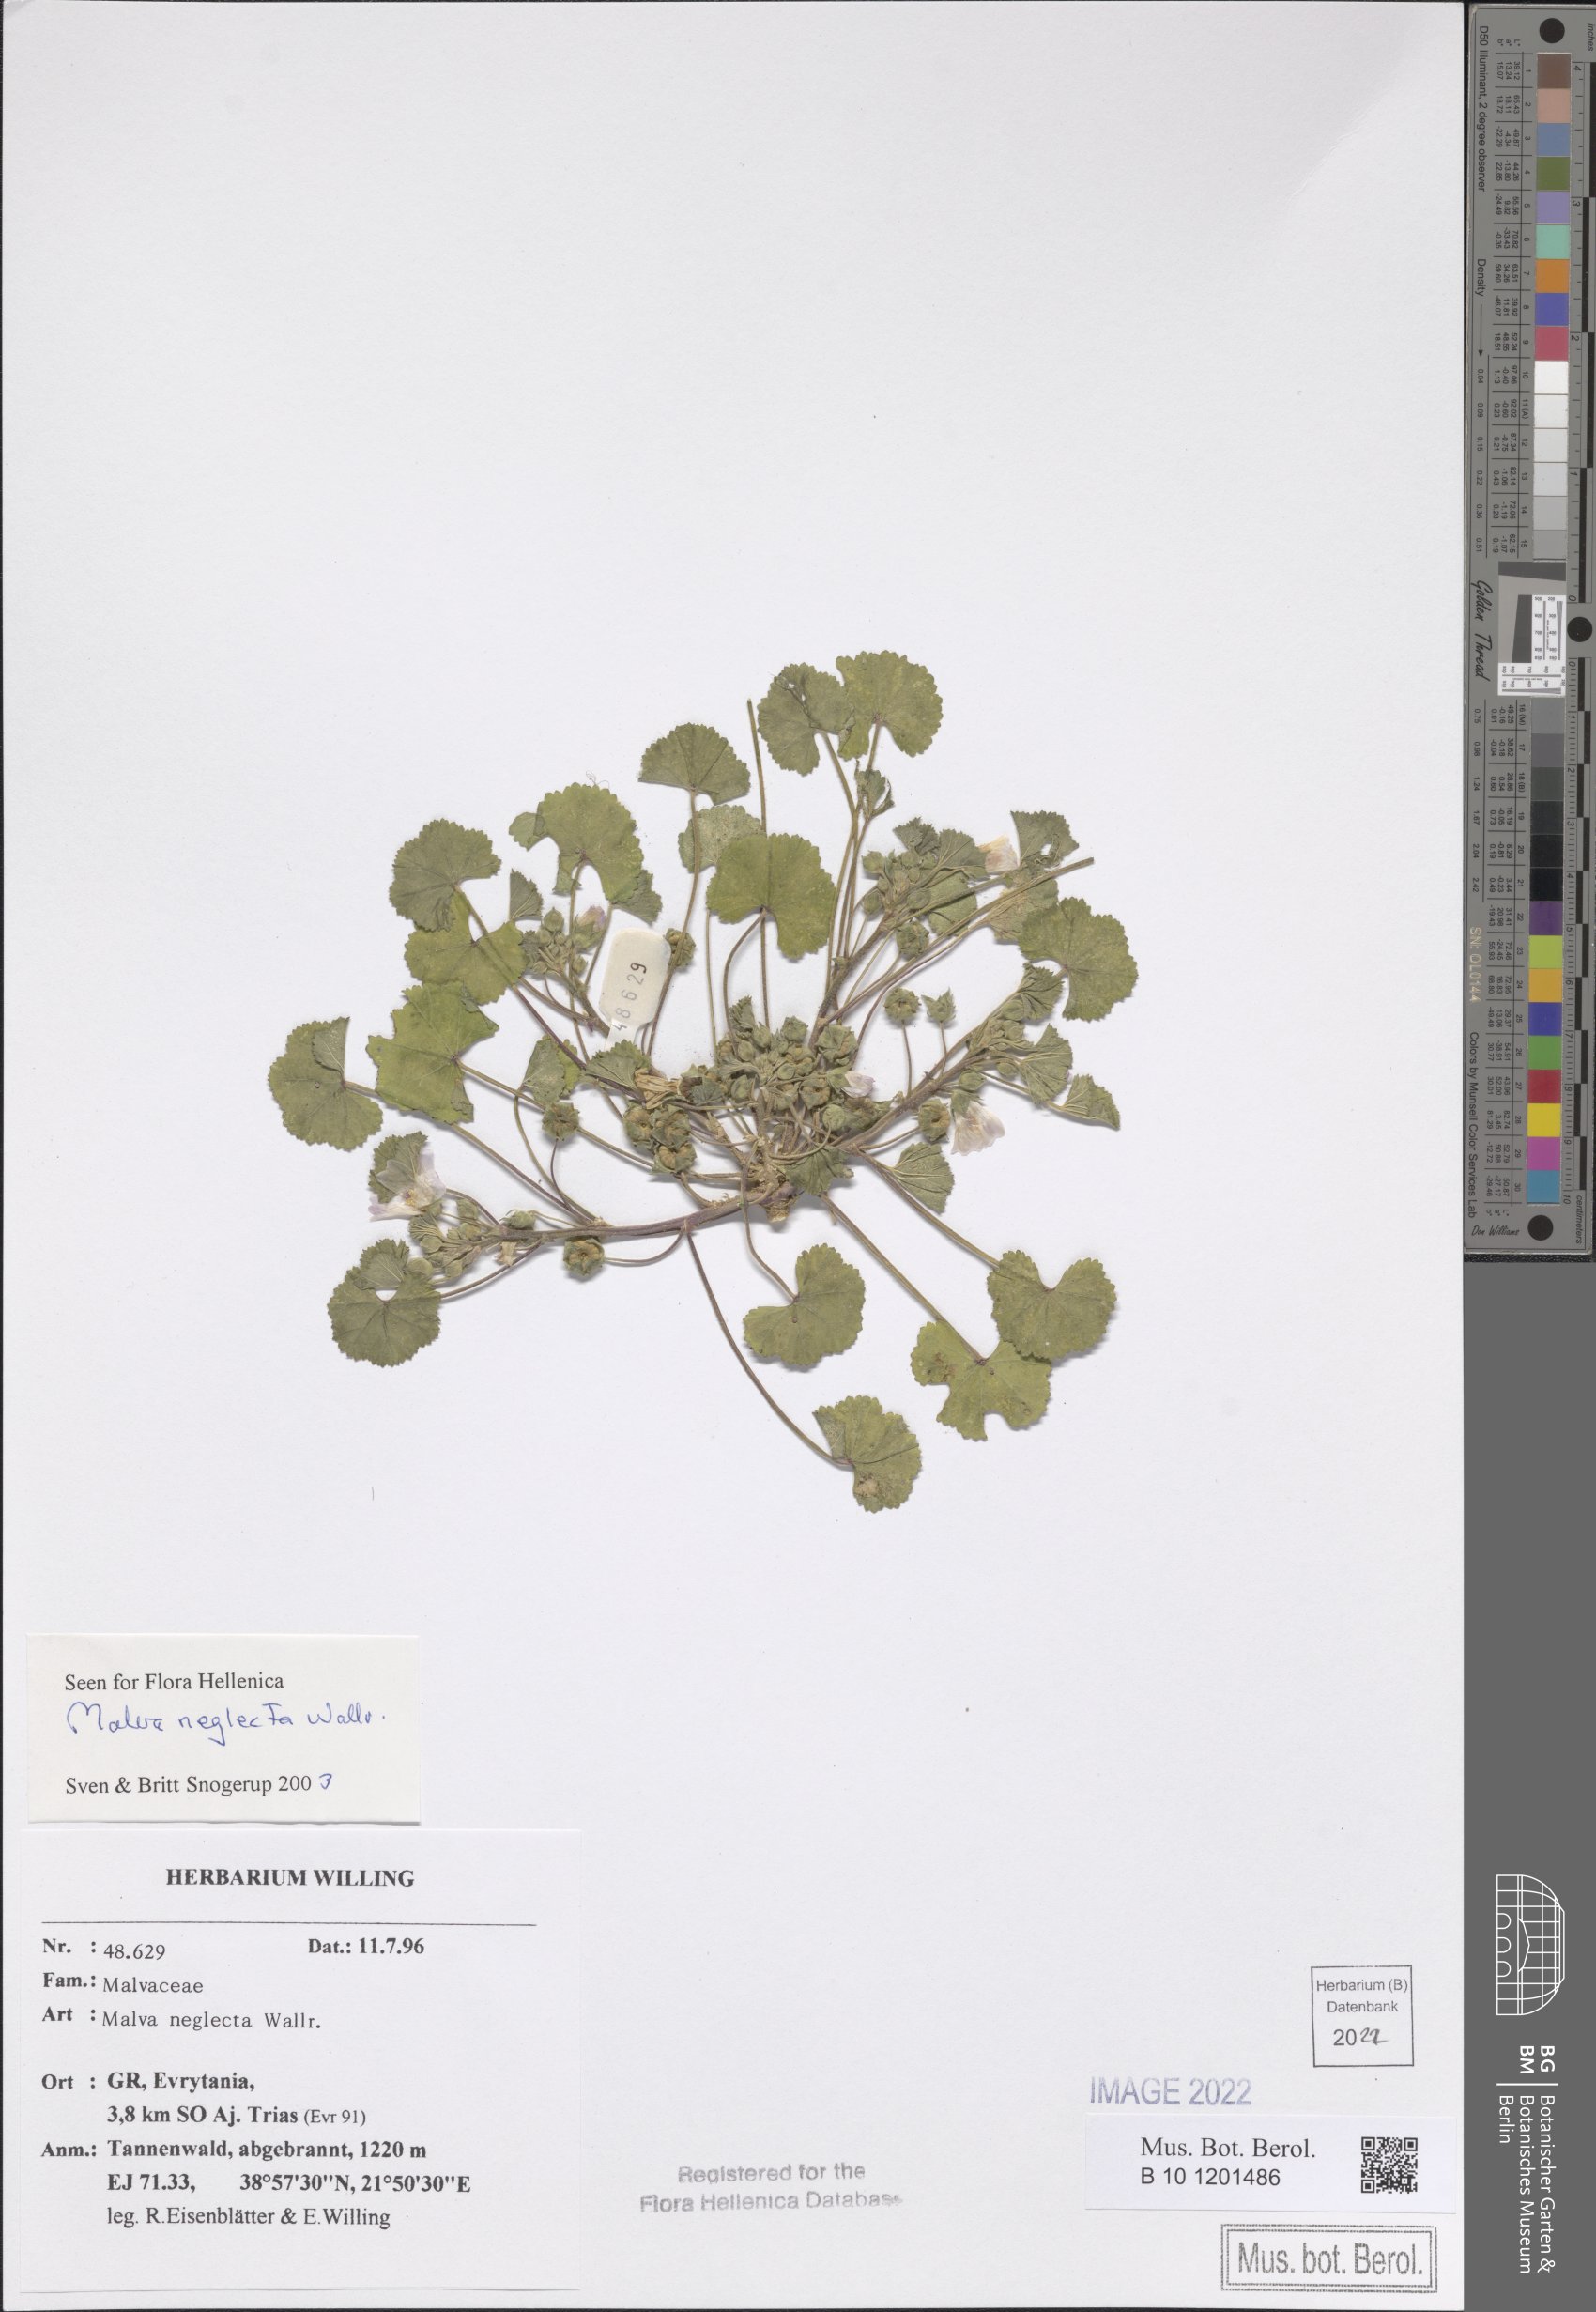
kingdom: Plantae
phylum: Tracheophyta
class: Magnoliopsida
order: Malvales
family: Malvaceae
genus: Malva
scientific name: Malva neglecta
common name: Common mallow
